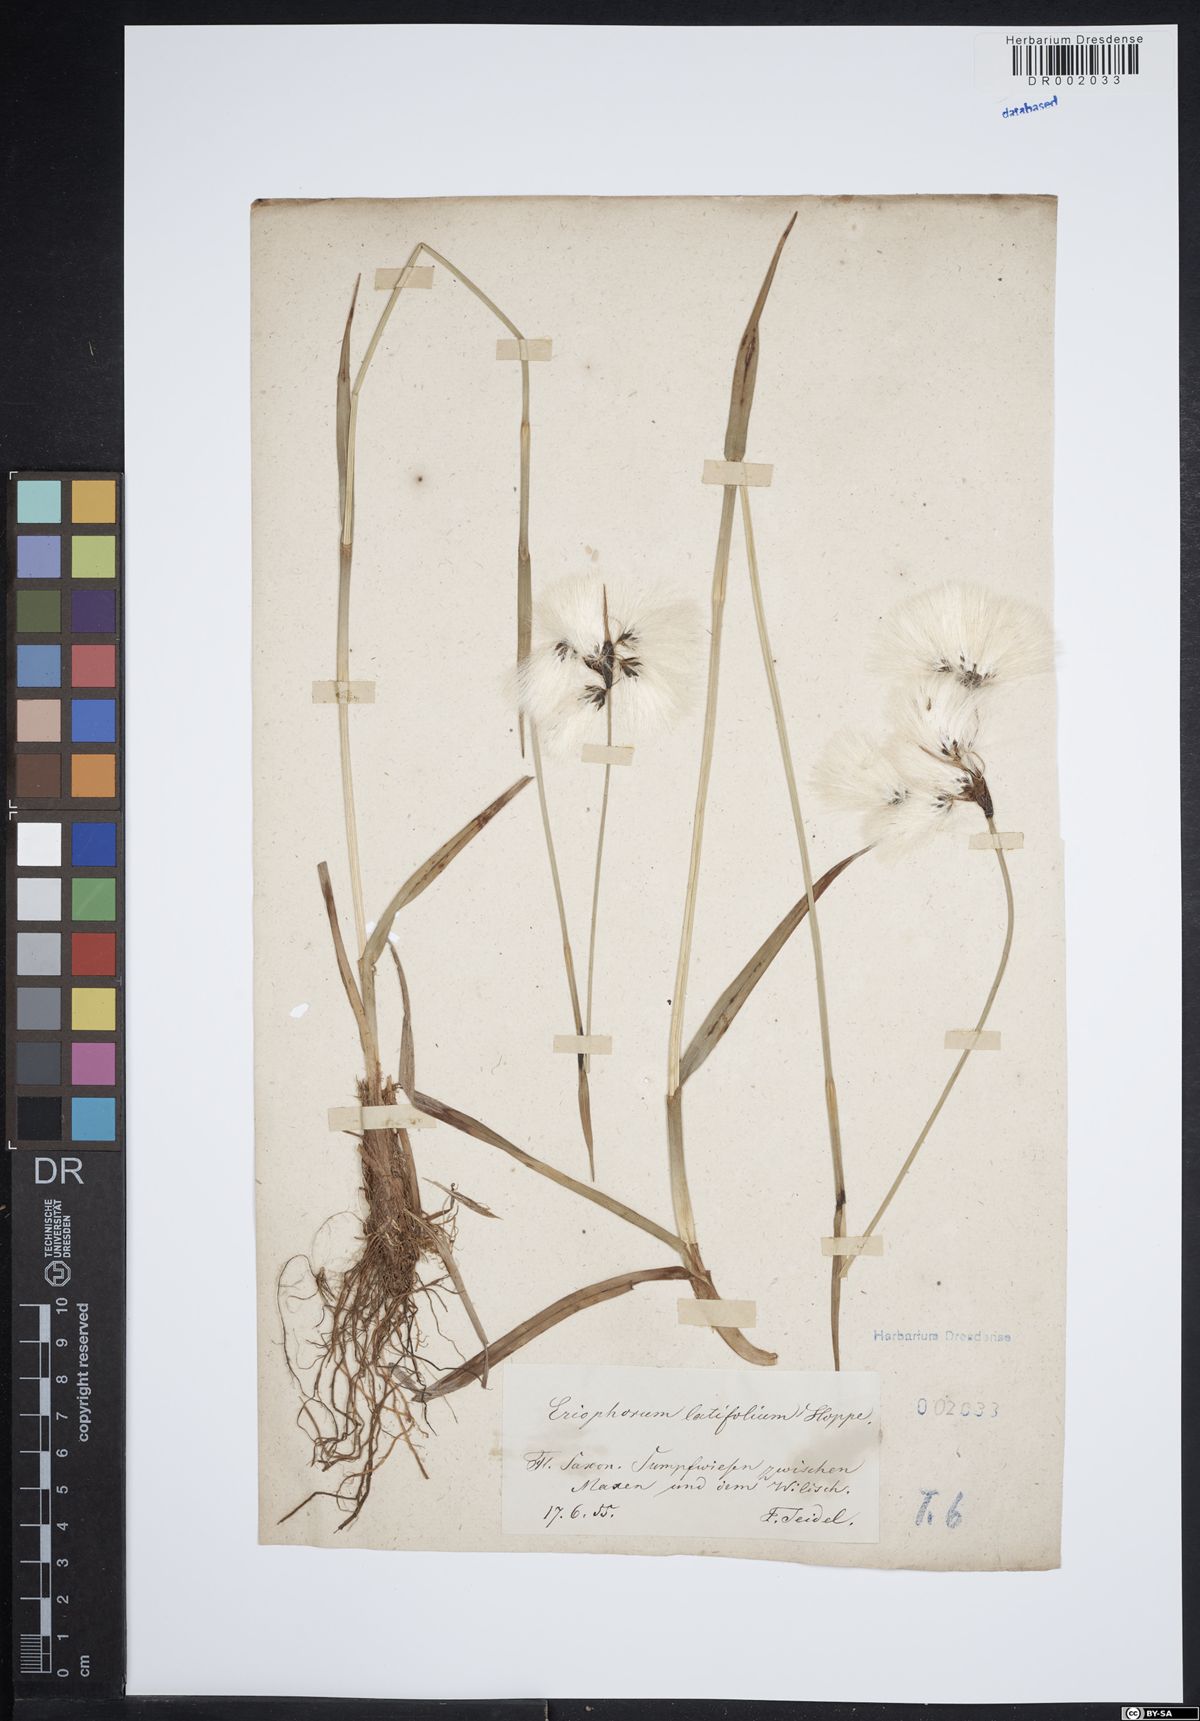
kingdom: Plantae
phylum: Tracheophyta
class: Liliopsida
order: Poales
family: Cyperaceae
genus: Eriophorum
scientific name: Eriophorum latifolium
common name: Broad-leaved cottongrass
